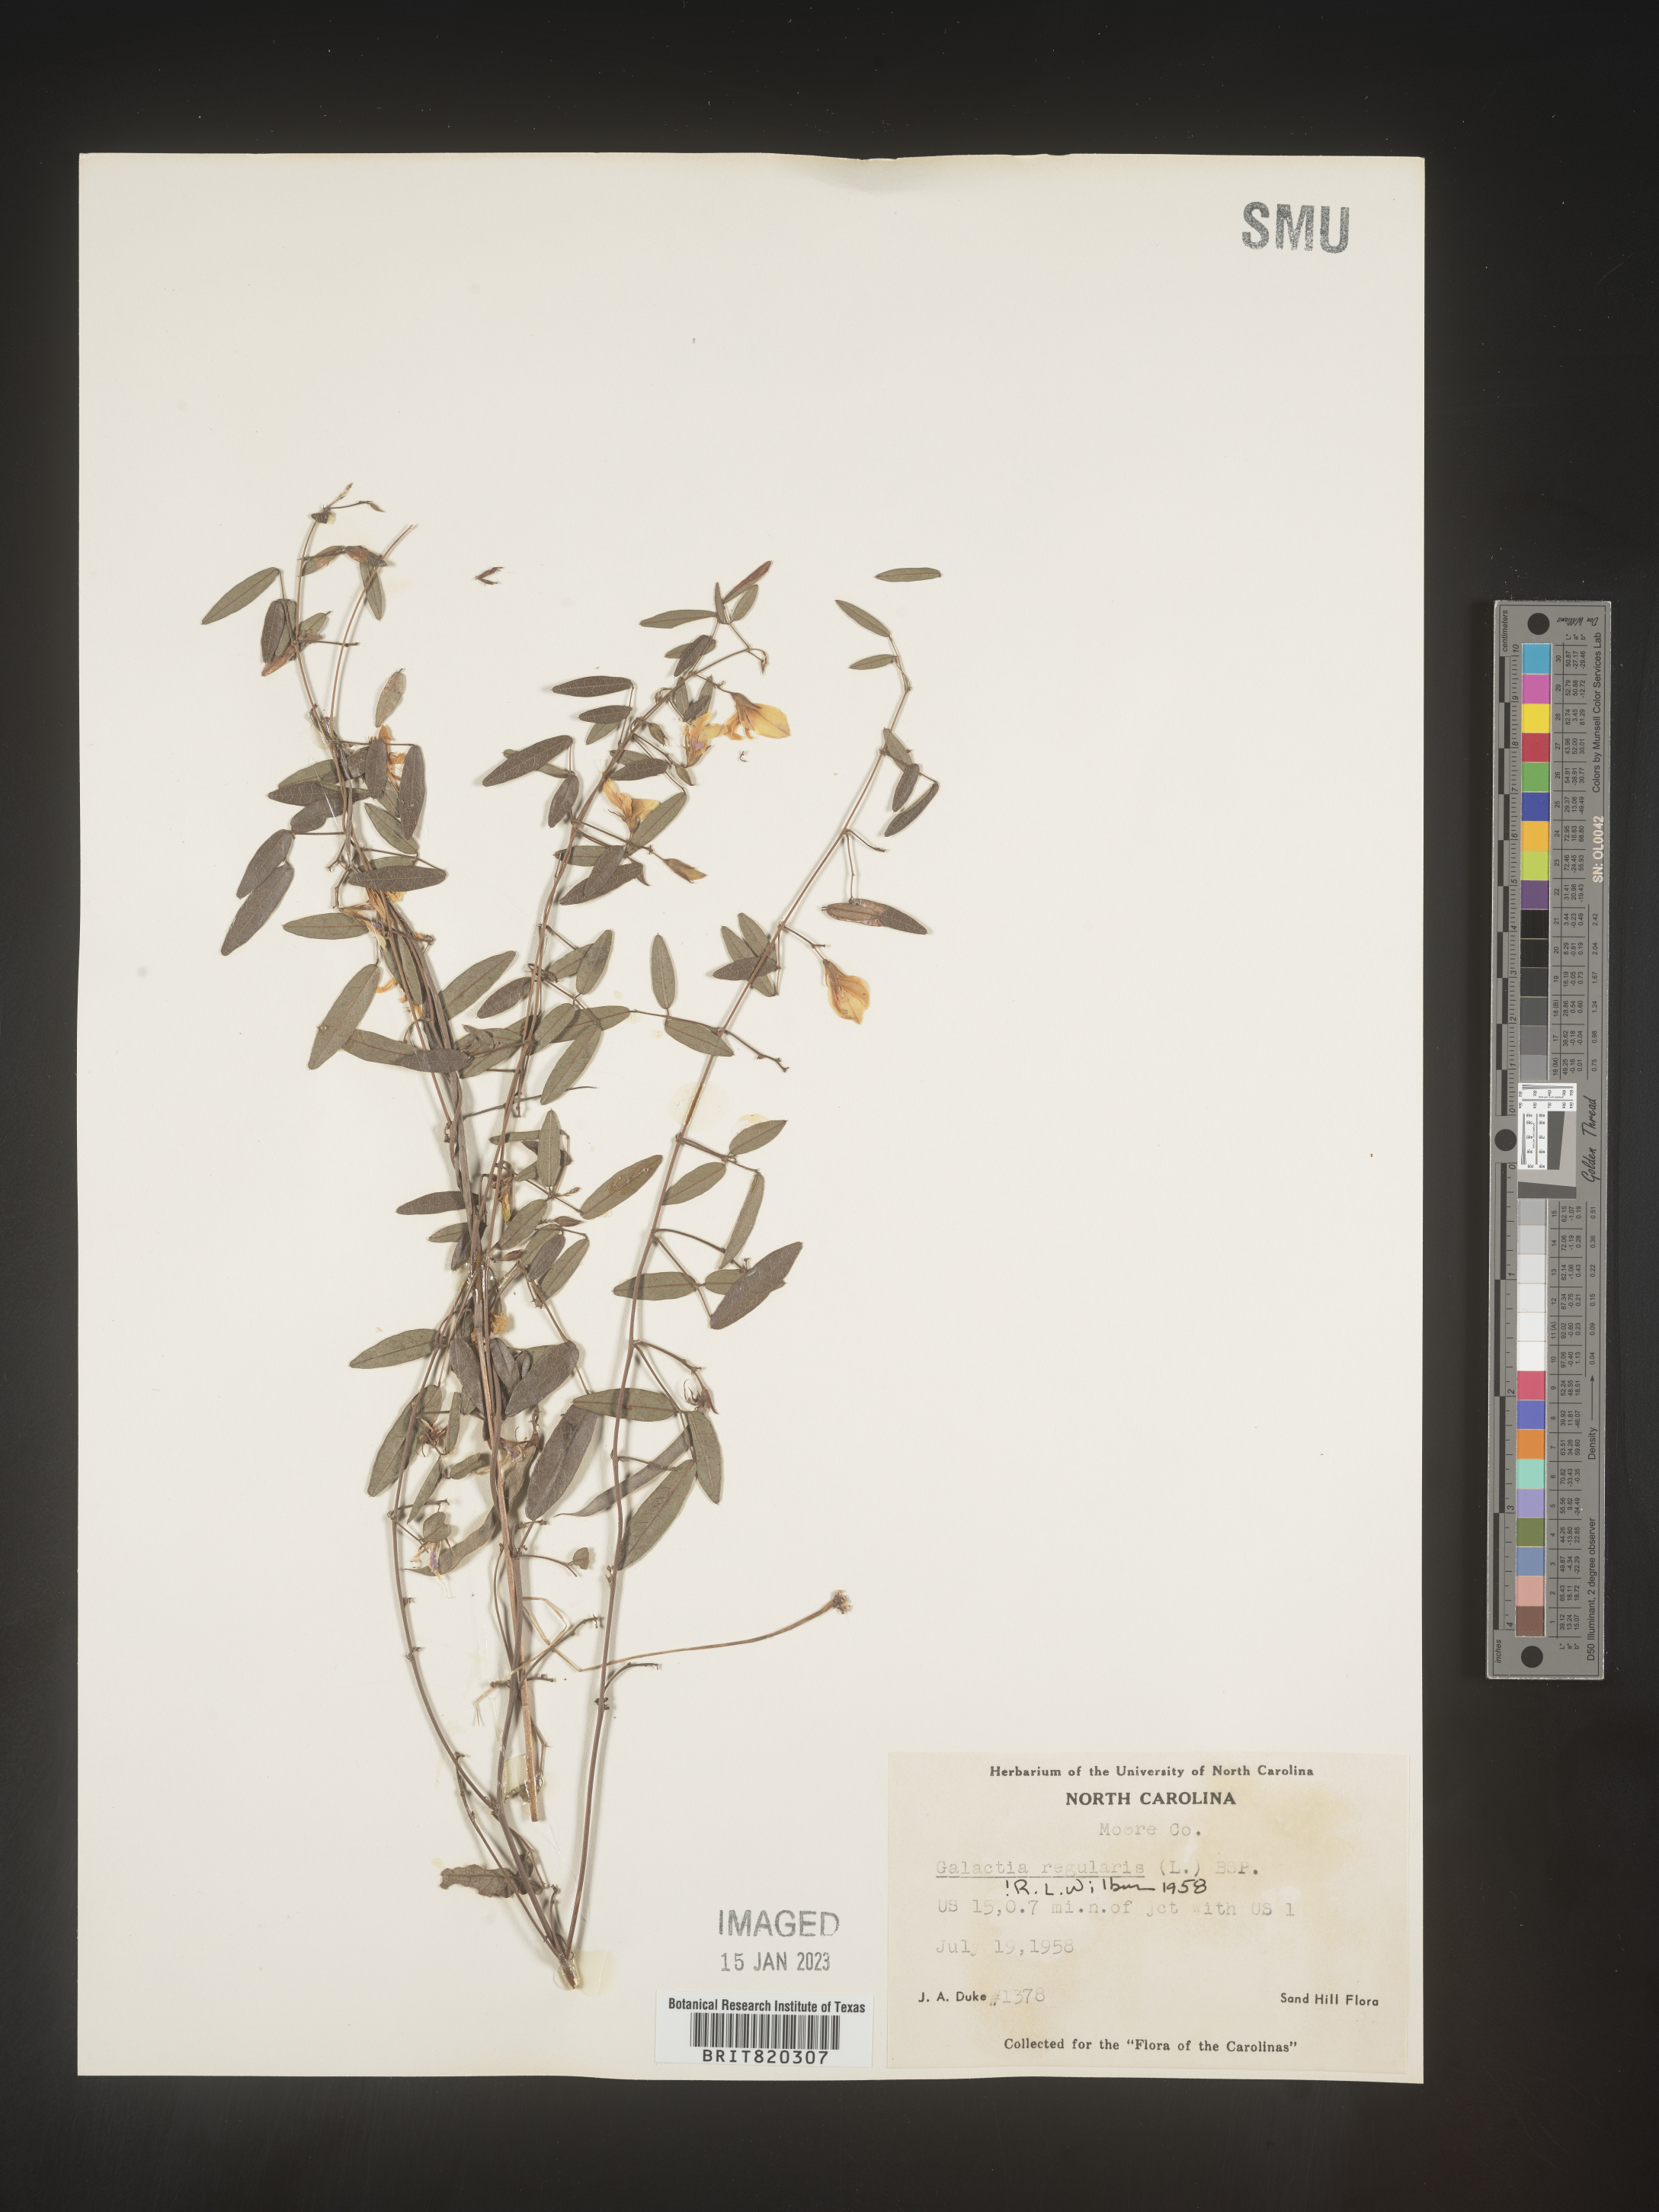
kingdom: Plantae
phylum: Tracheophyta
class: Magnoliopsida
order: Fabales
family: Fabaceae
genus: Galactia
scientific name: Galactia regularis
